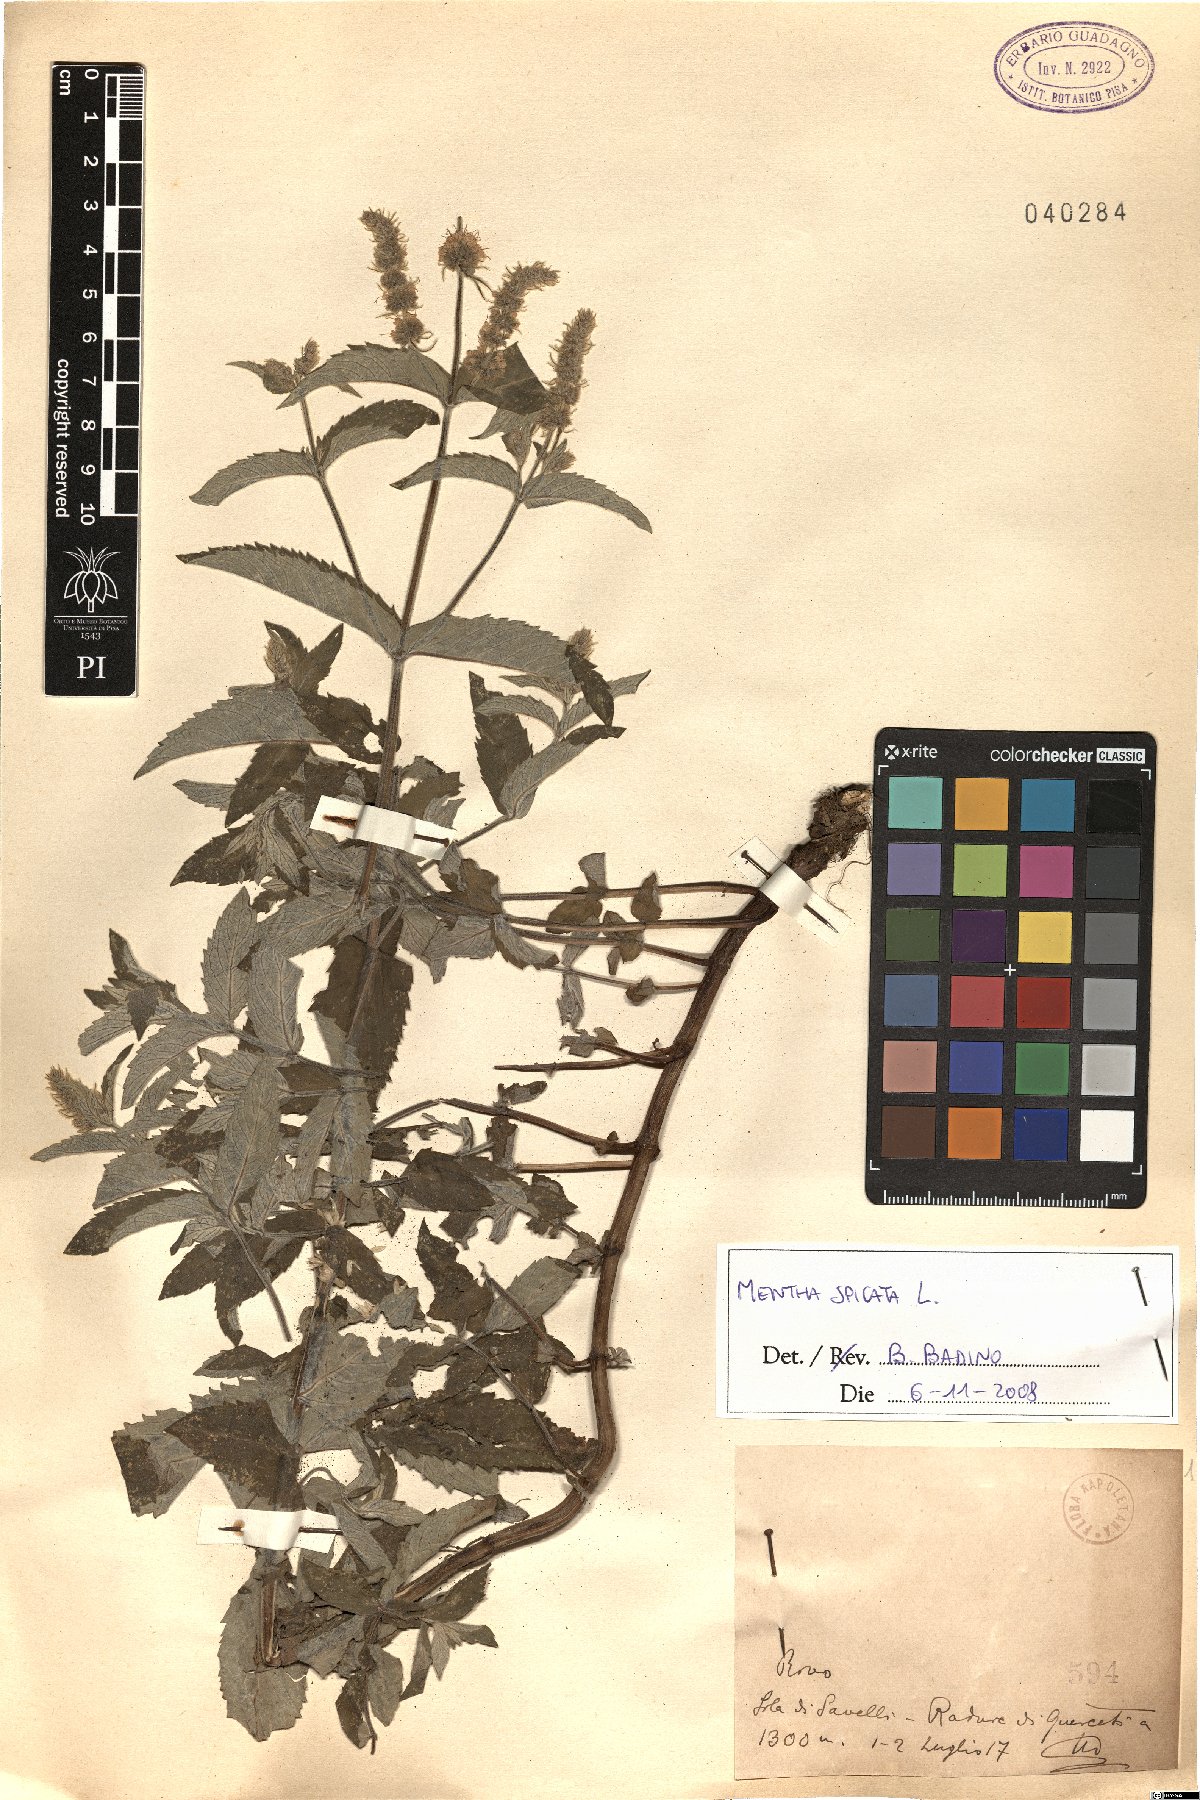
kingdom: Plantae
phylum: Tracheophyta
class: Magnoliopsida
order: Lamiales
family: Lamiaceae
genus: Mentha
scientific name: Mentha spicata
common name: Spearmint
